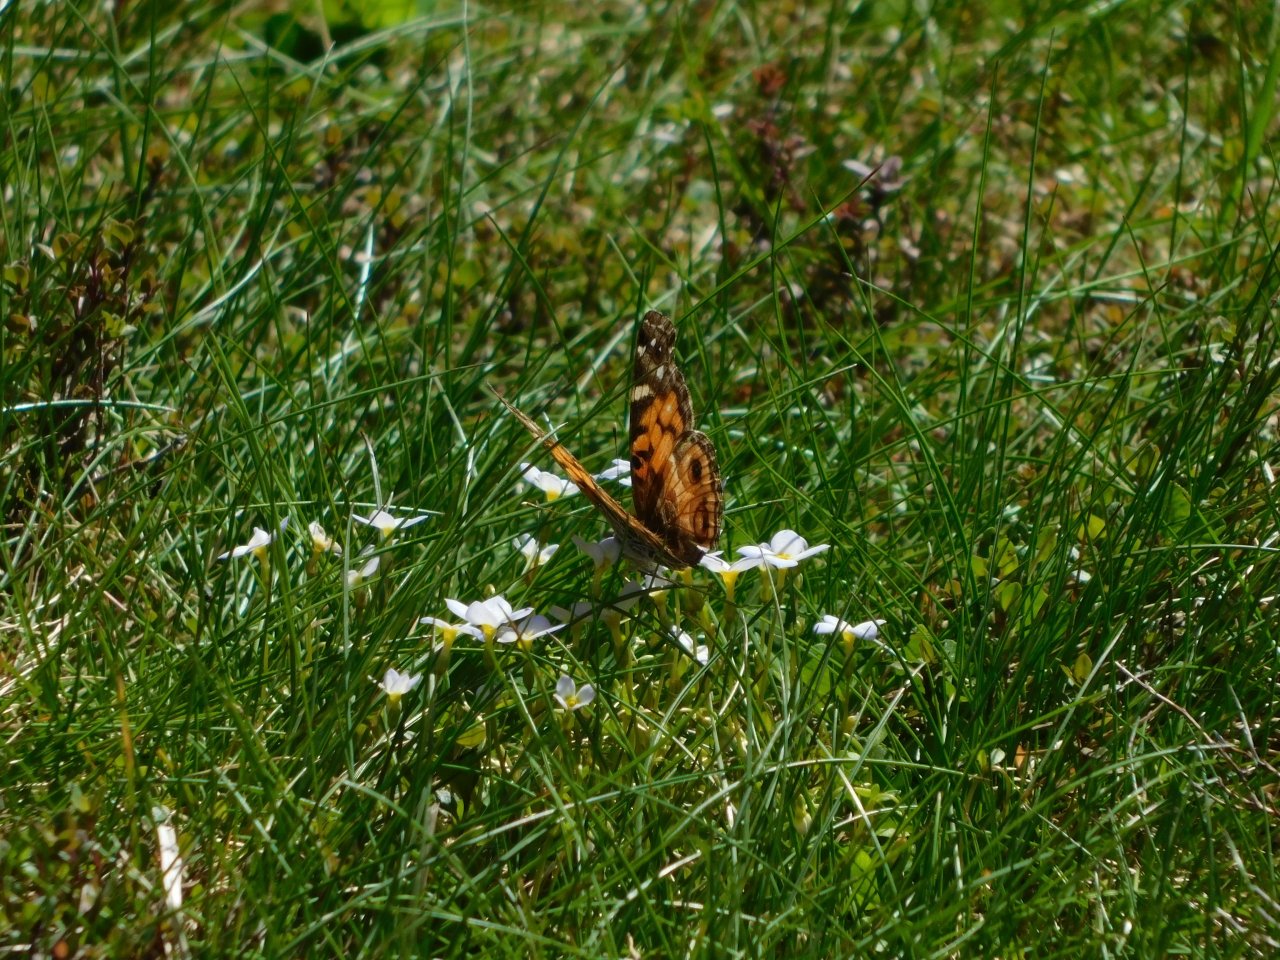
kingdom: Animalia
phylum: Arthropoda
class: Insecta
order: Lepidoptera
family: Nymphalidae
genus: Vanessa
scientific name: Vanessa virginiensis
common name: American Lady
